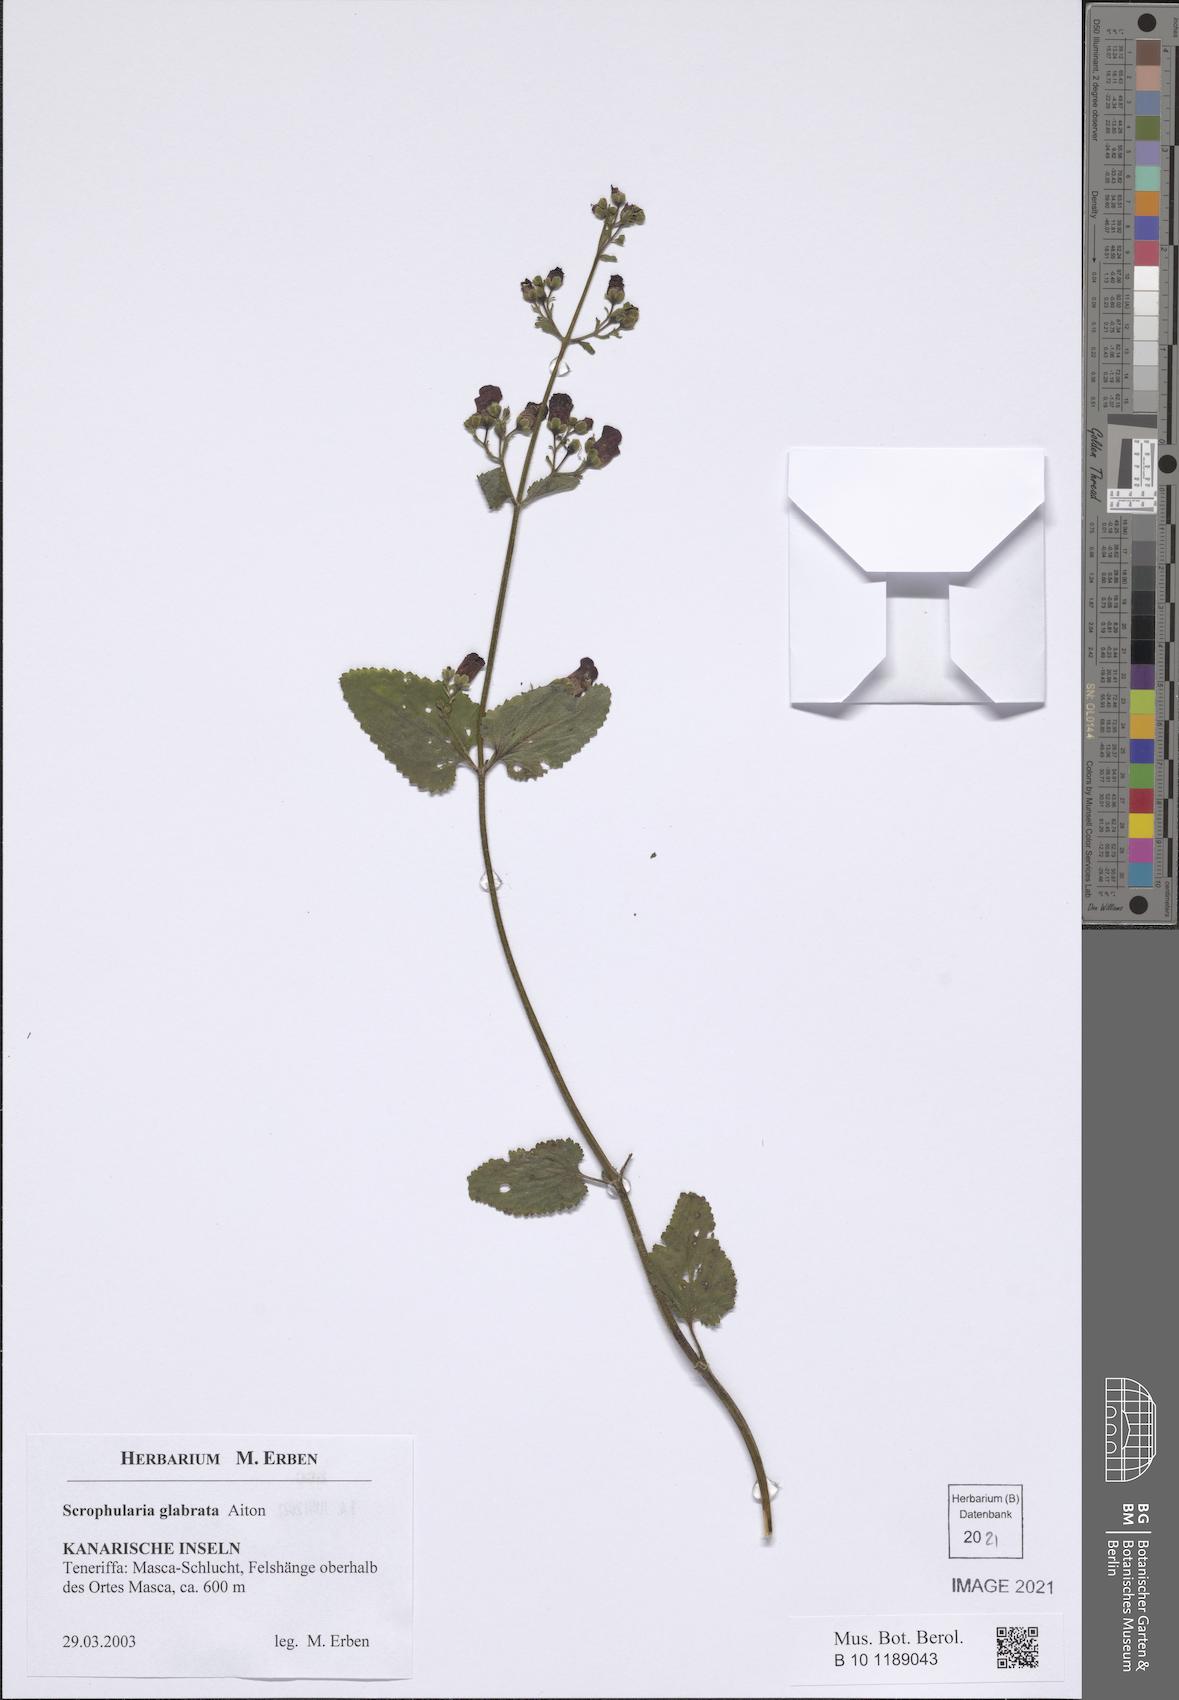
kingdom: Plantae
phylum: Tracheophyta
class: Magnoliopsida
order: Lamiales
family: Scrophulariaceae
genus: Scrophularia
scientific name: Scrophularia glabrata
